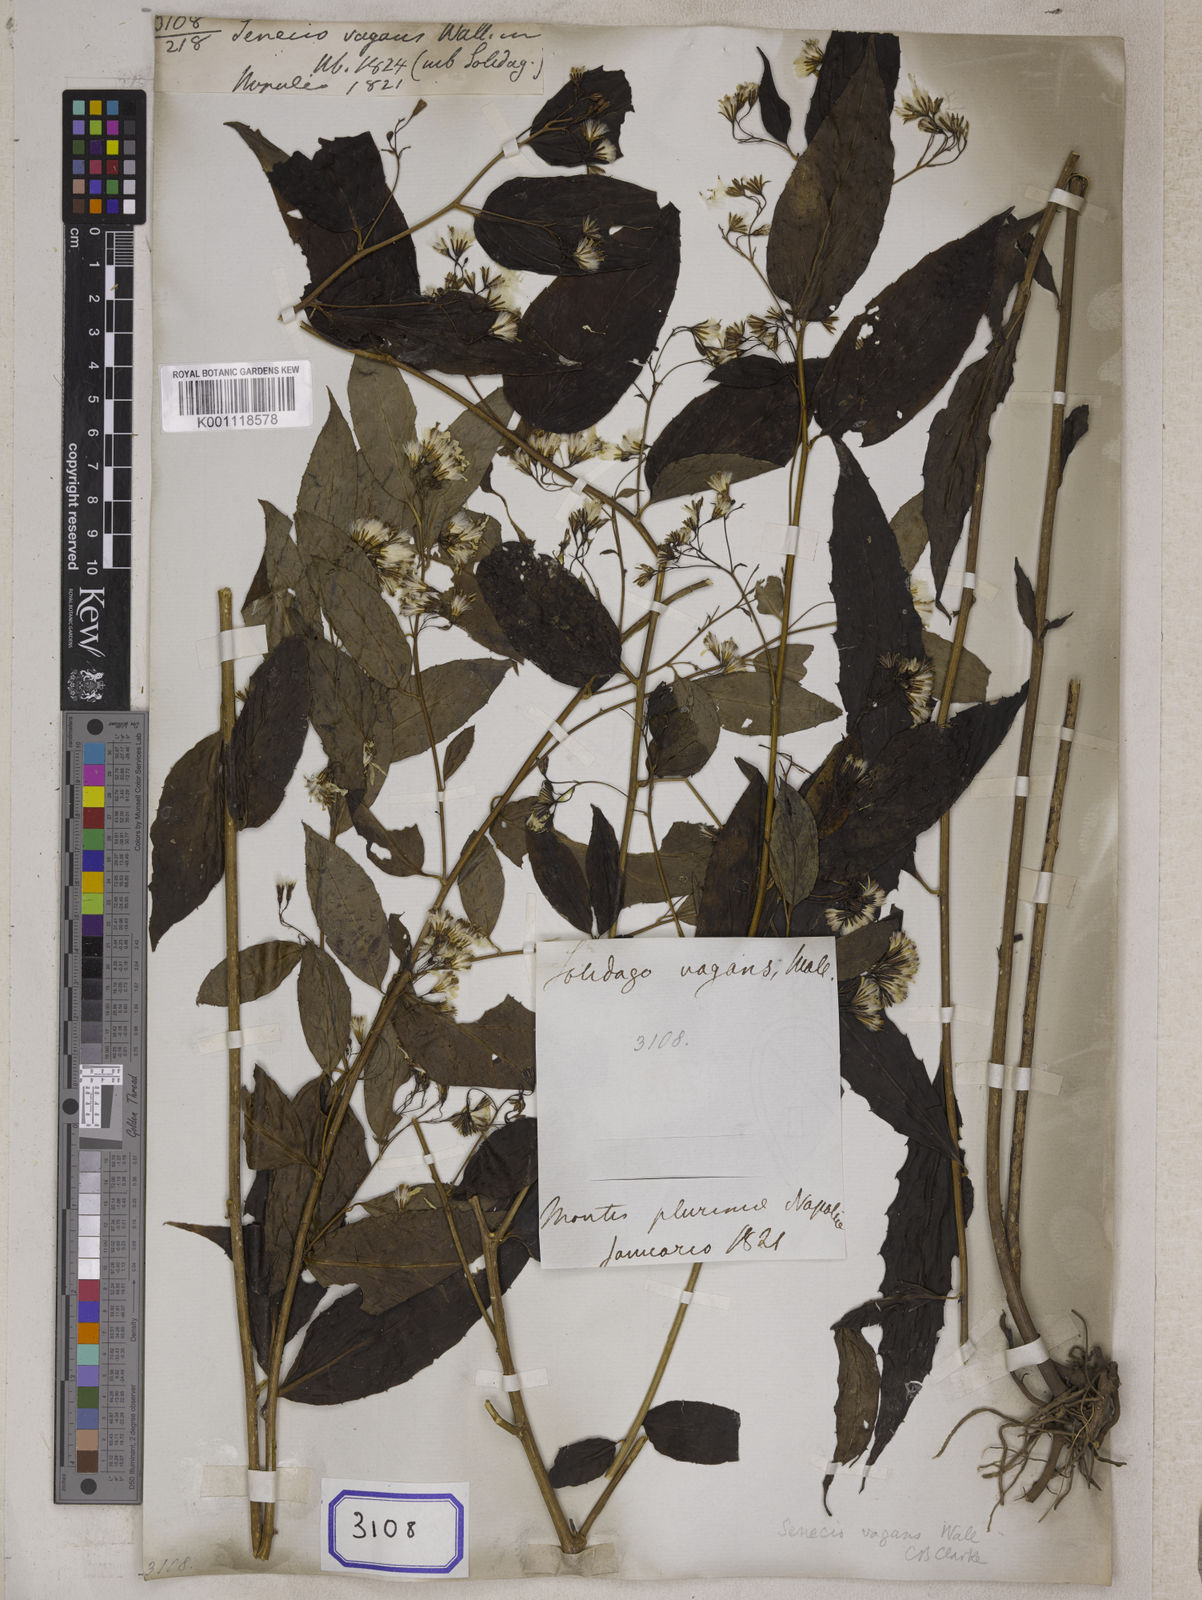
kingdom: Plantae
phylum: Tracheophyta
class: Magnoliopsida
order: Asterales
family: Asteraceae
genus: Synotis
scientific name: Synotis vagans
